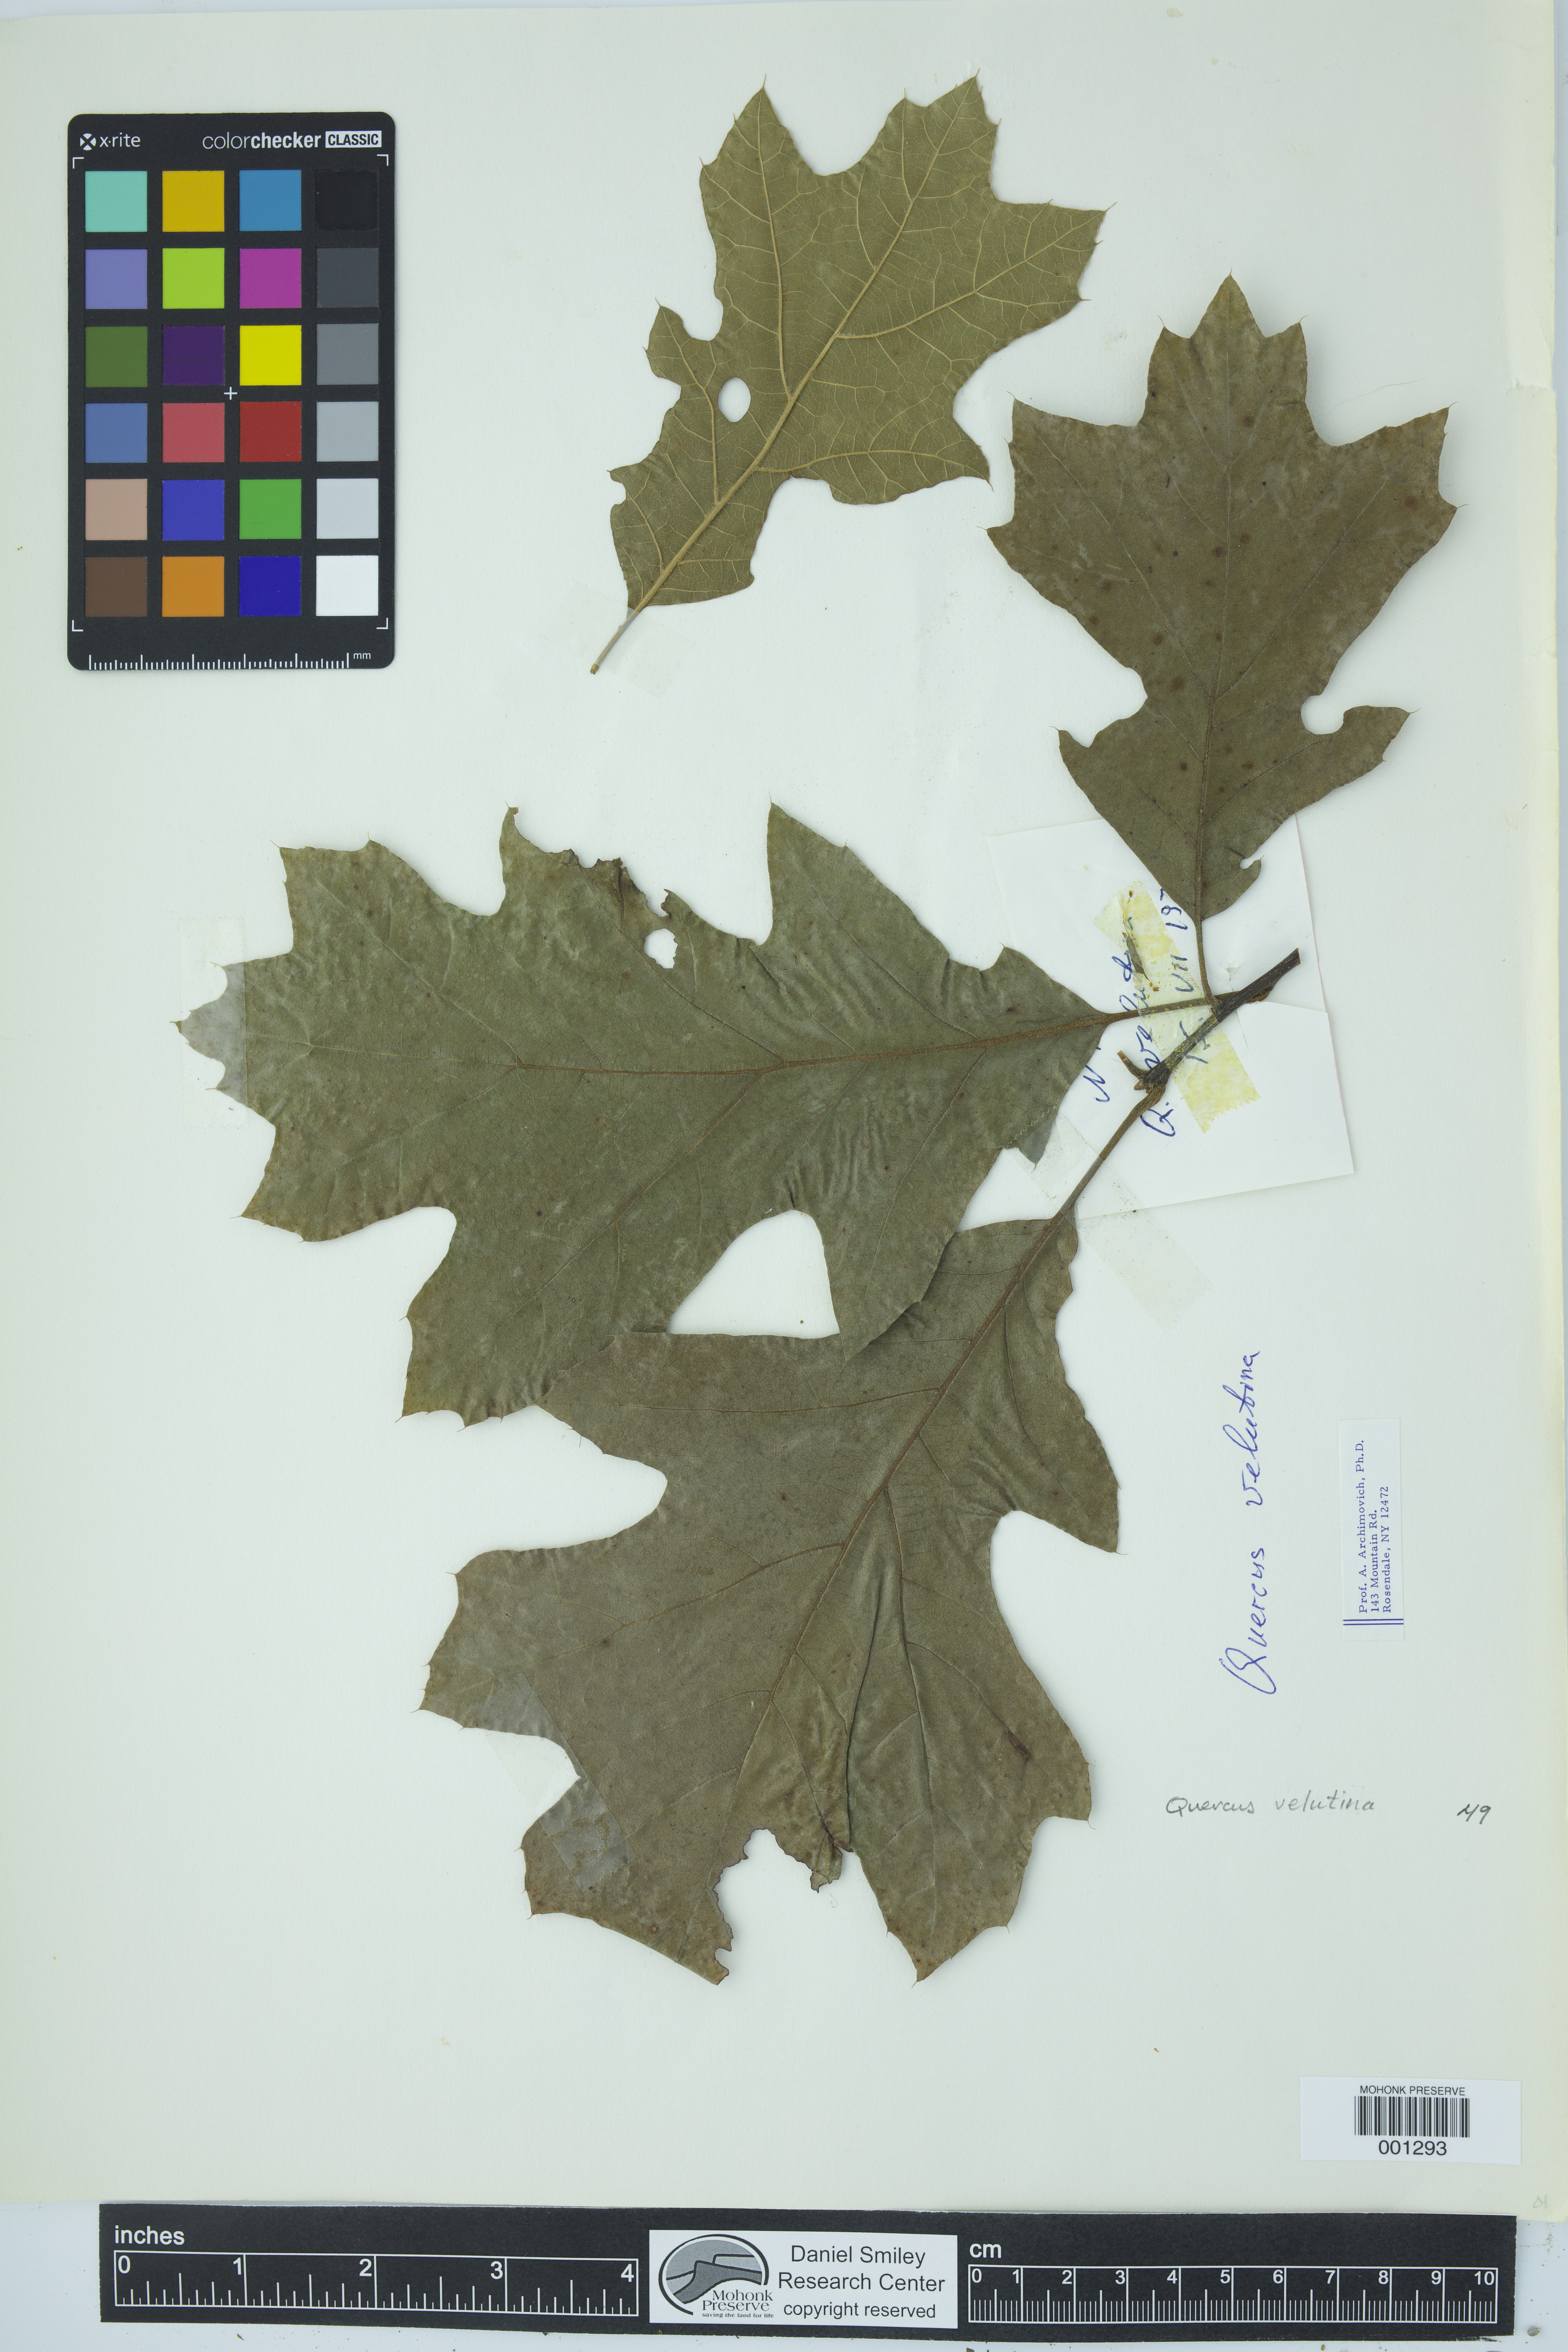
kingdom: Plantae
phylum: Tracheophyta
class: Magnoliopsida
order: Fagales
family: Fagaceae
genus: Quercus
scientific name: Quercus velutina
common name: Black oak
